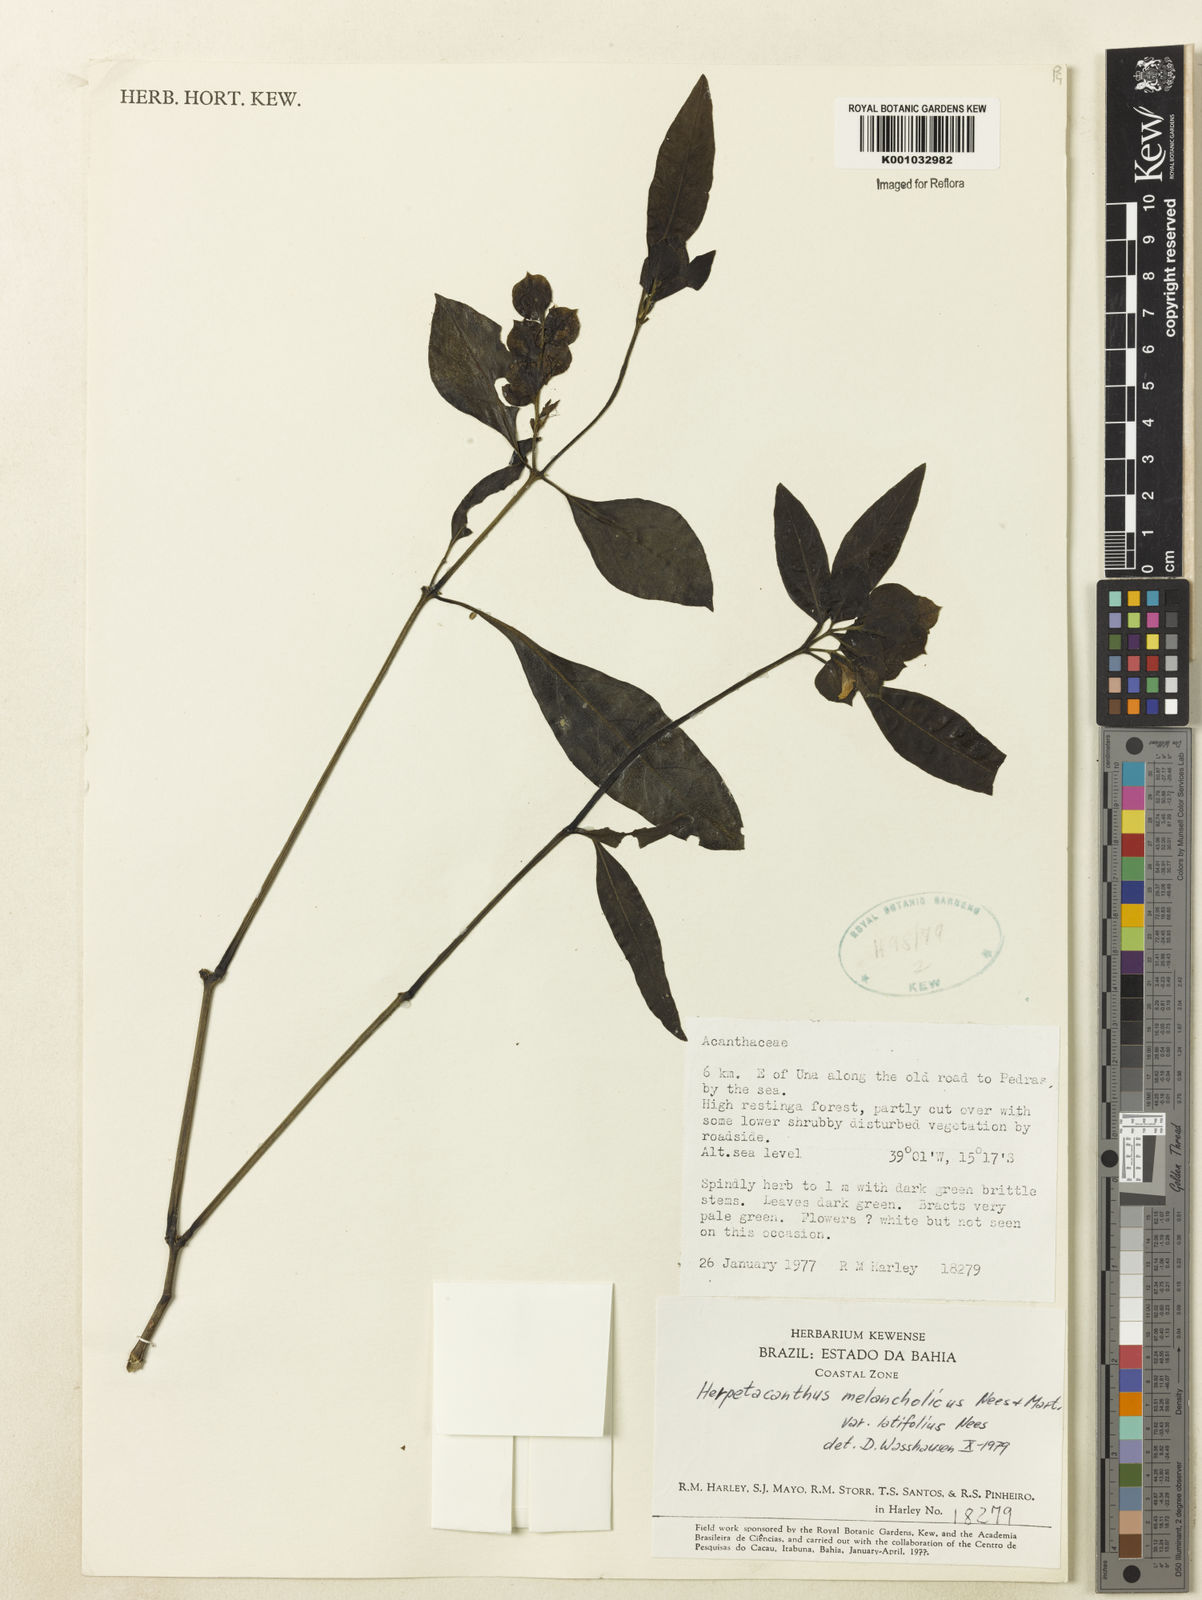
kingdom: Plantae
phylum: Tracheophyta
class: Magnoliopsida
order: Lamiales
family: Acanthaceae
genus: Herpetacanthus
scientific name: Herpetacanthus melancholicus
